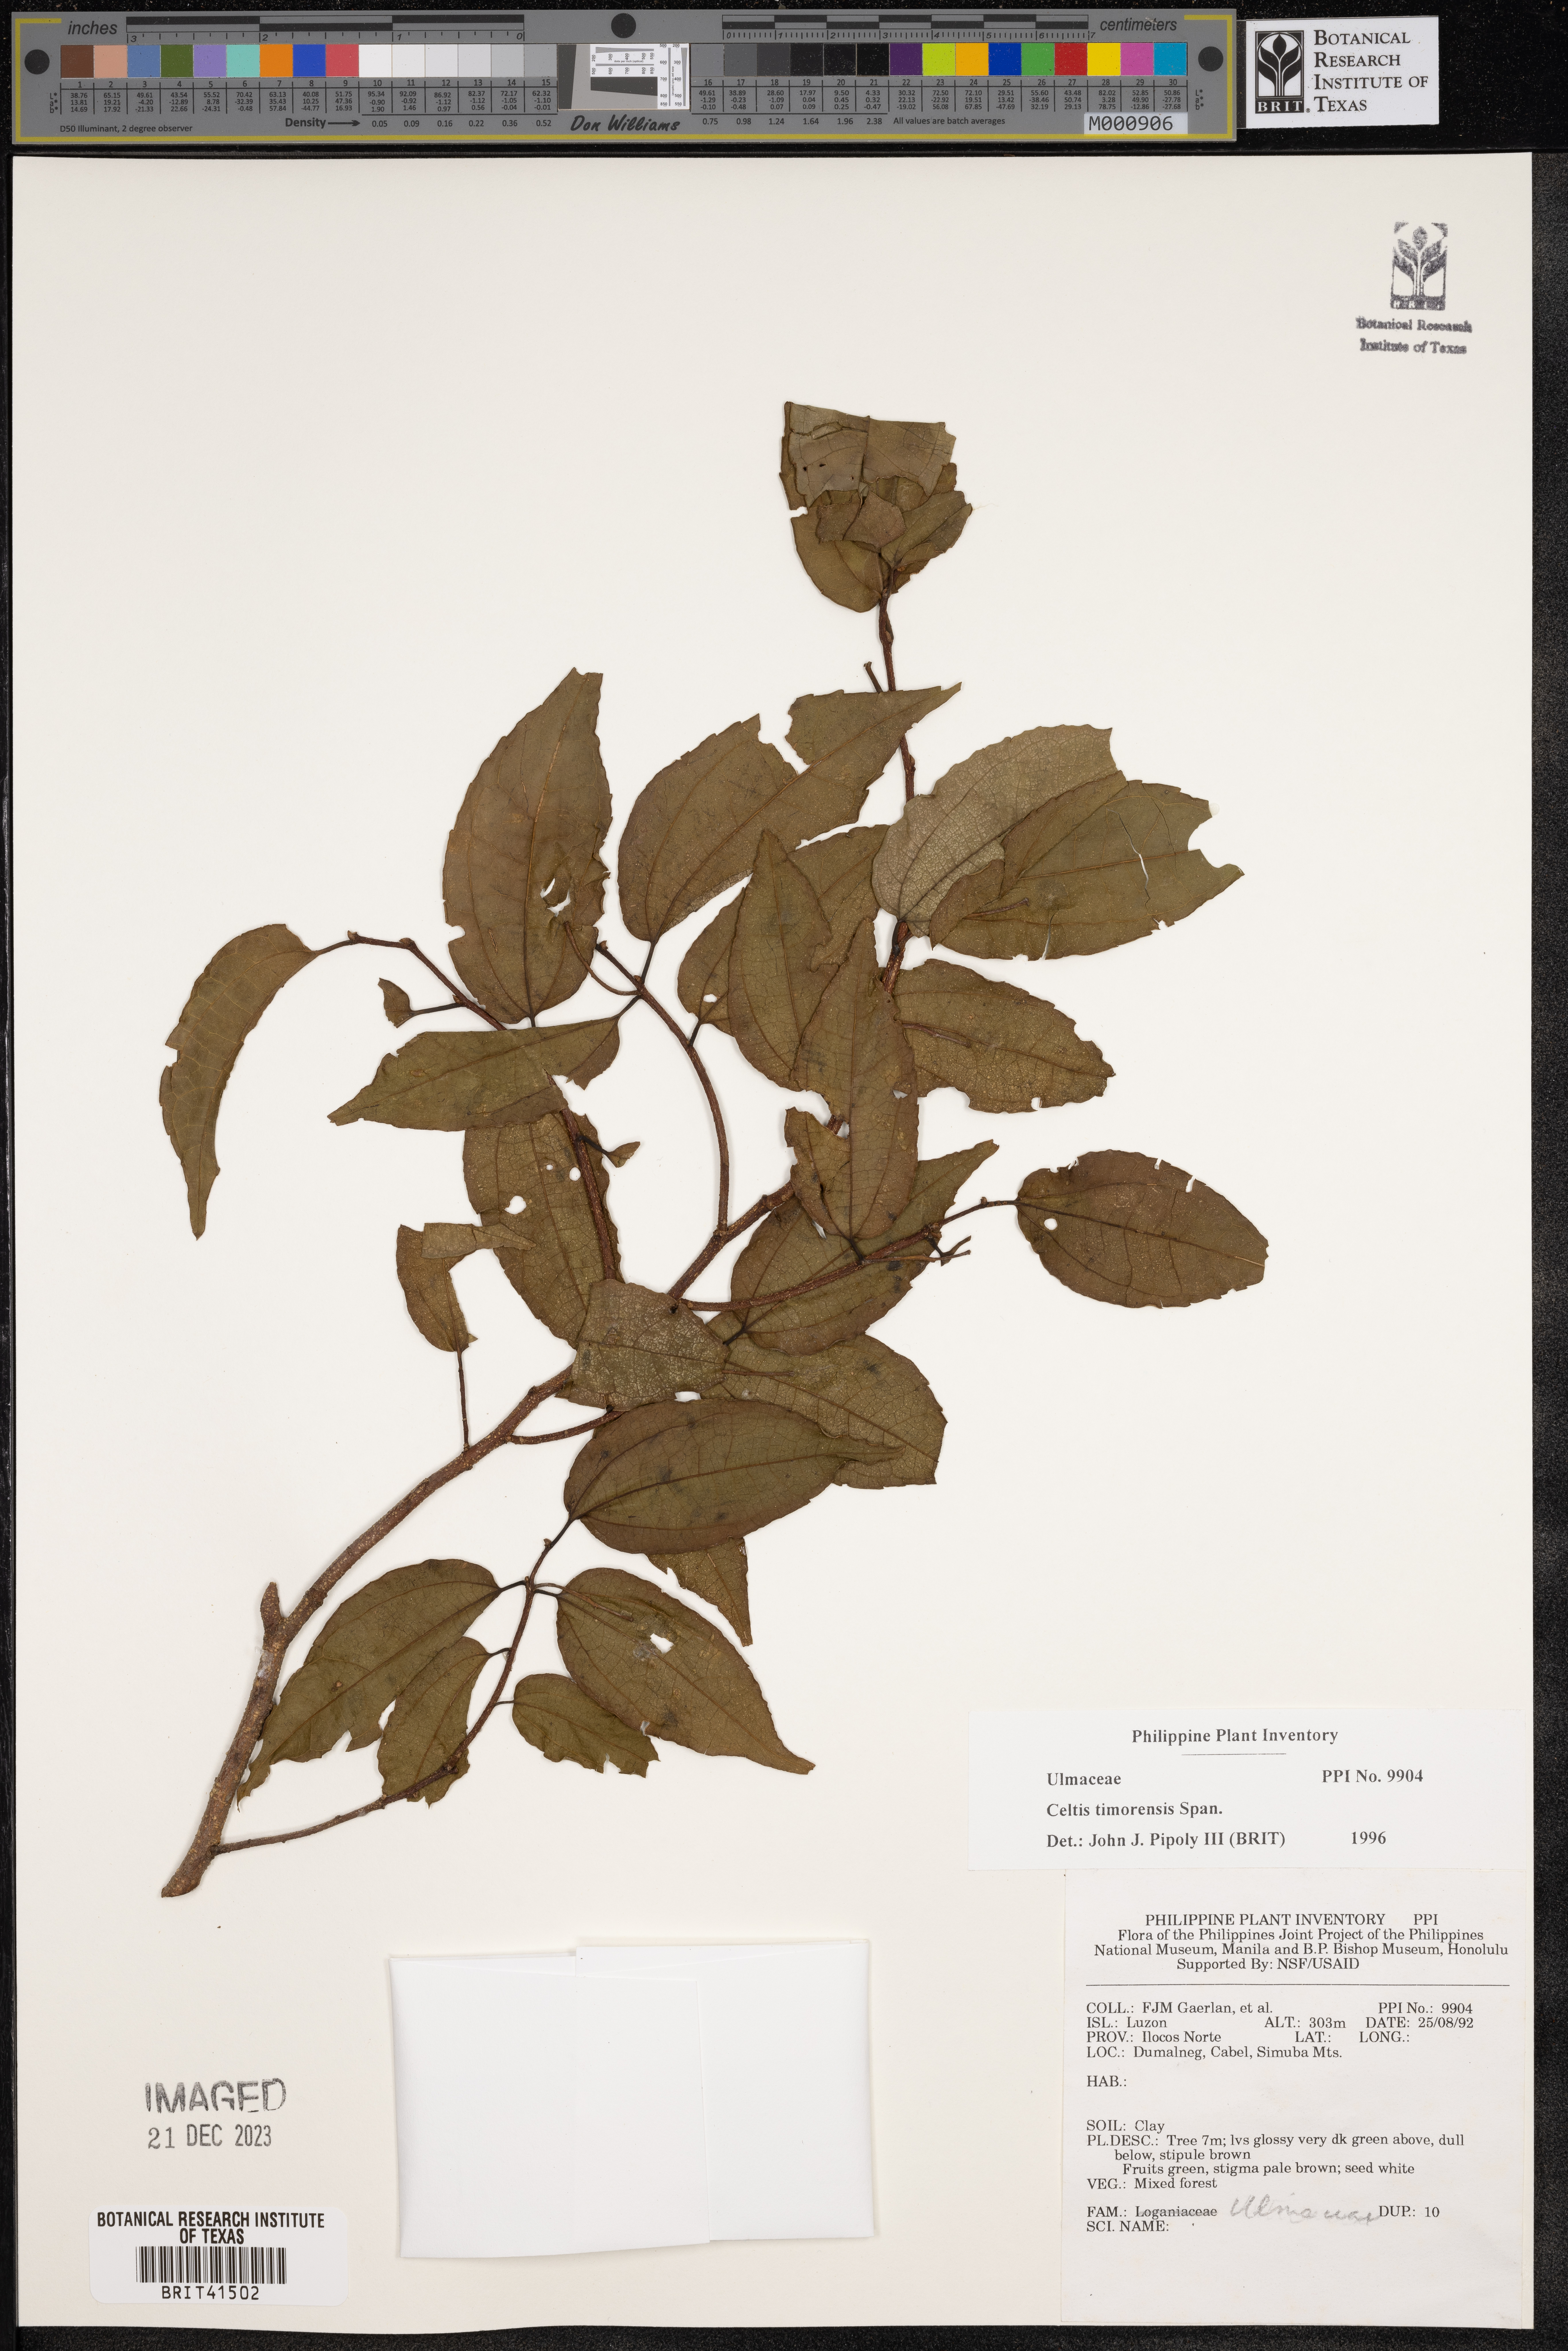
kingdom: Plantae
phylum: Tracheophyta
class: Magnoliopsida
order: Rosales
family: Cannabaceae
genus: Celtis
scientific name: Celtis timorensis
